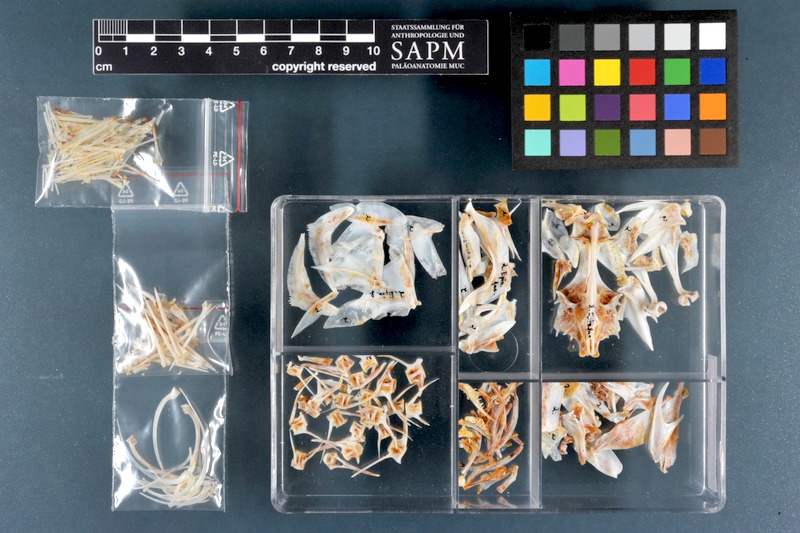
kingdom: Animalia
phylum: Chordata
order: Perciformes
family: Serranidae
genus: Epinephelus
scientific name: Epinephelus fasciatus
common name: Blacktip grouper
